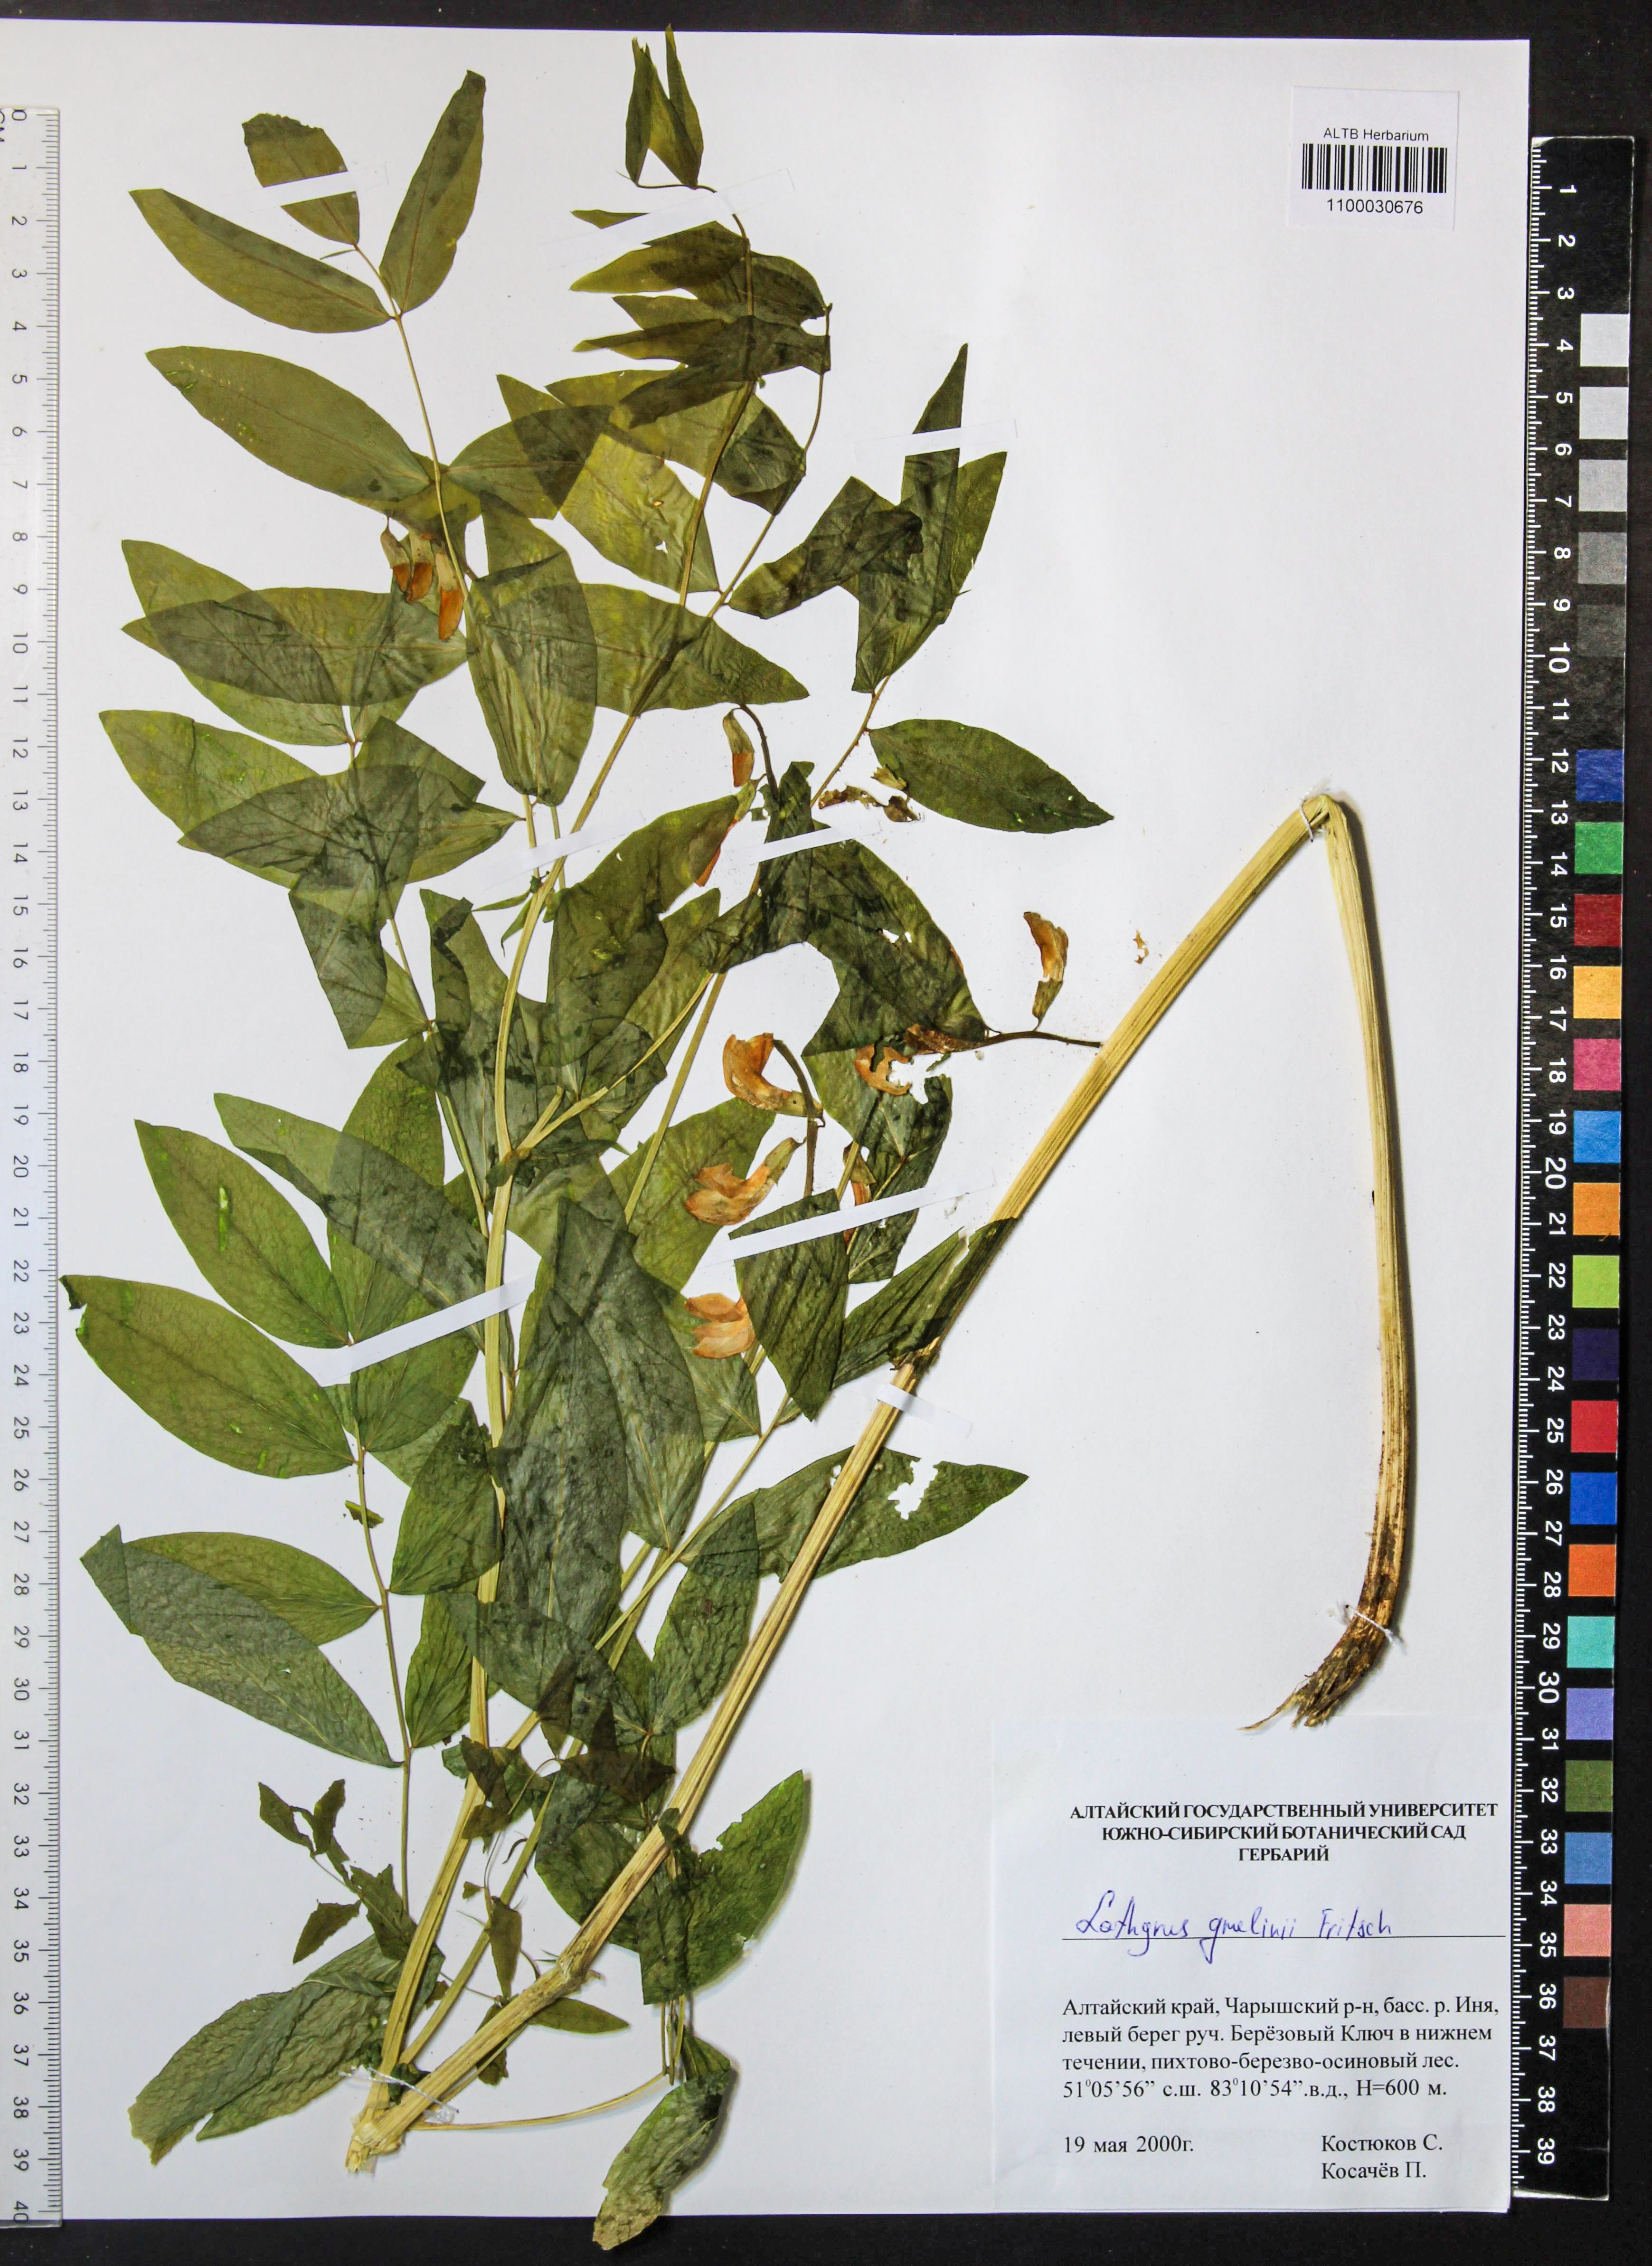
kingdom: Plantae
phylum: Tracheophyta
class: Magnoliopsida
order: Fabales
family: Fabaceae
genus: Lathyrus
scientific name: Lathyrus gmelinii
